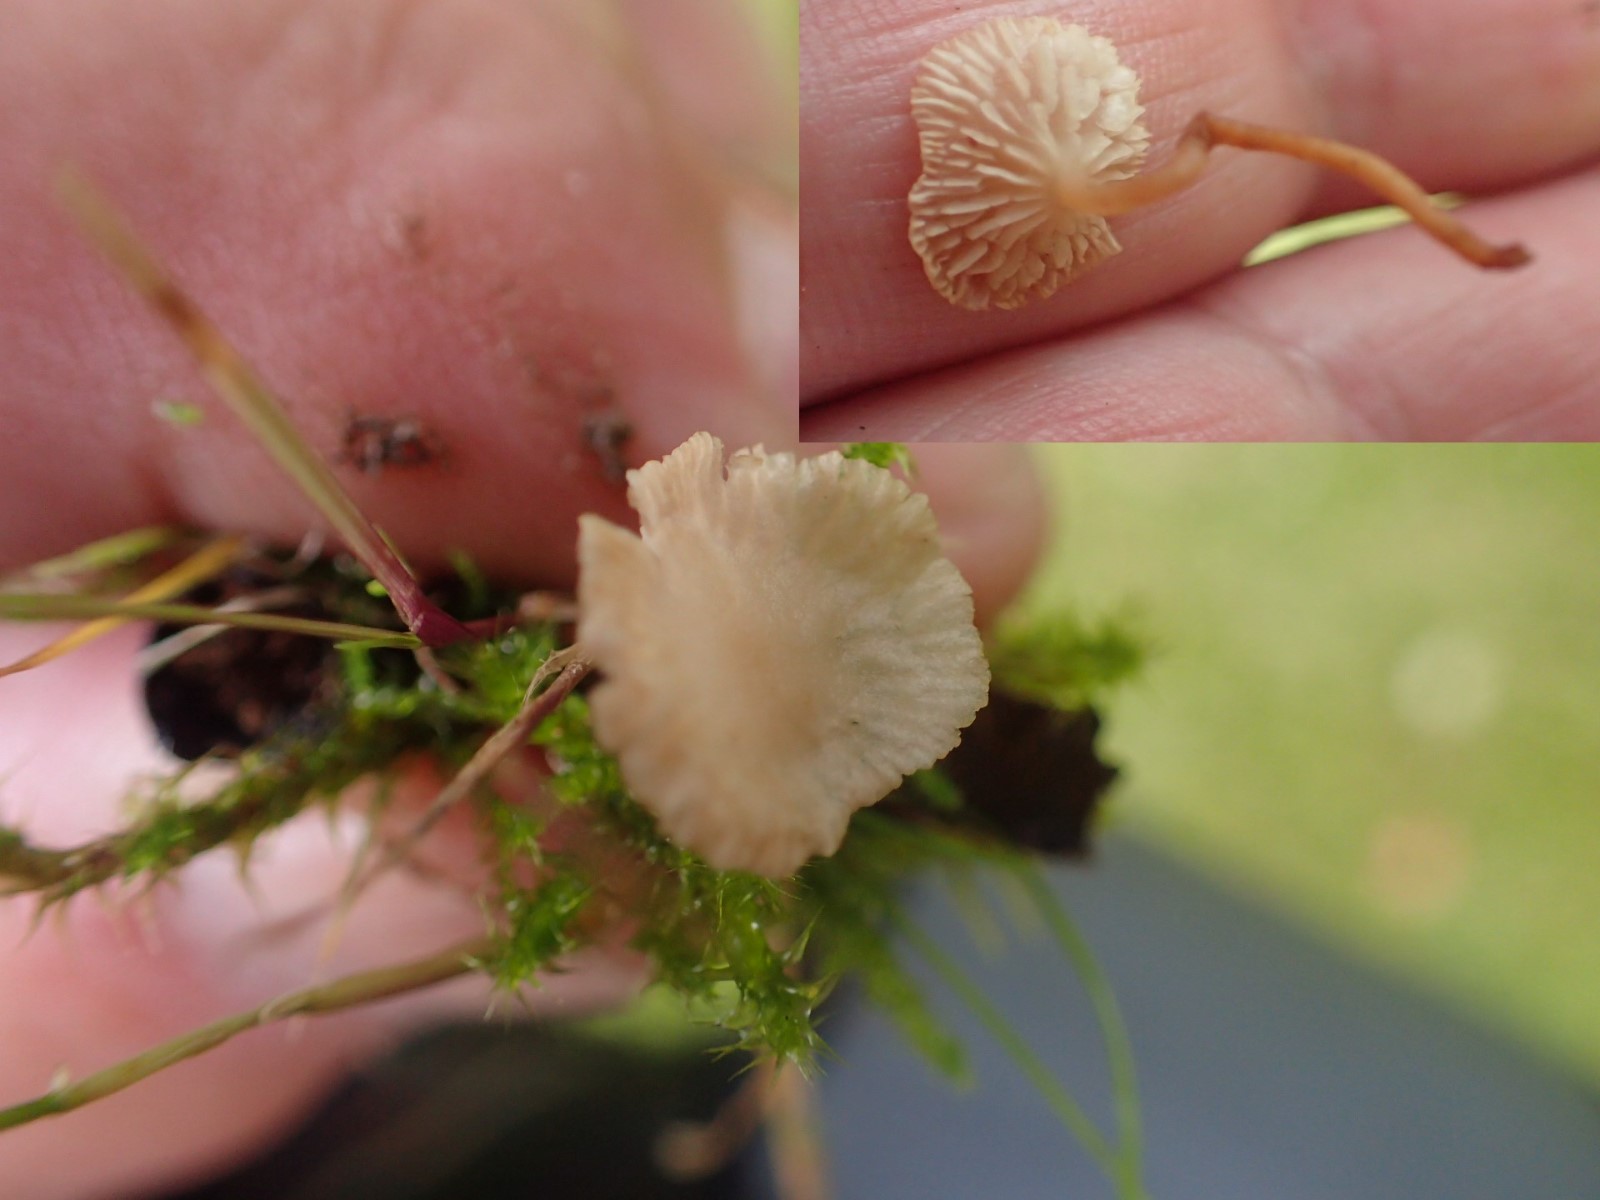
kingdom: Fungi
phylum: Basidiomycota
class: Agaricomycetes
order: Agaricales
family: Omphalotaceae
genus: Collybiopsis
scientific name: Collybiopsis vaillantii
